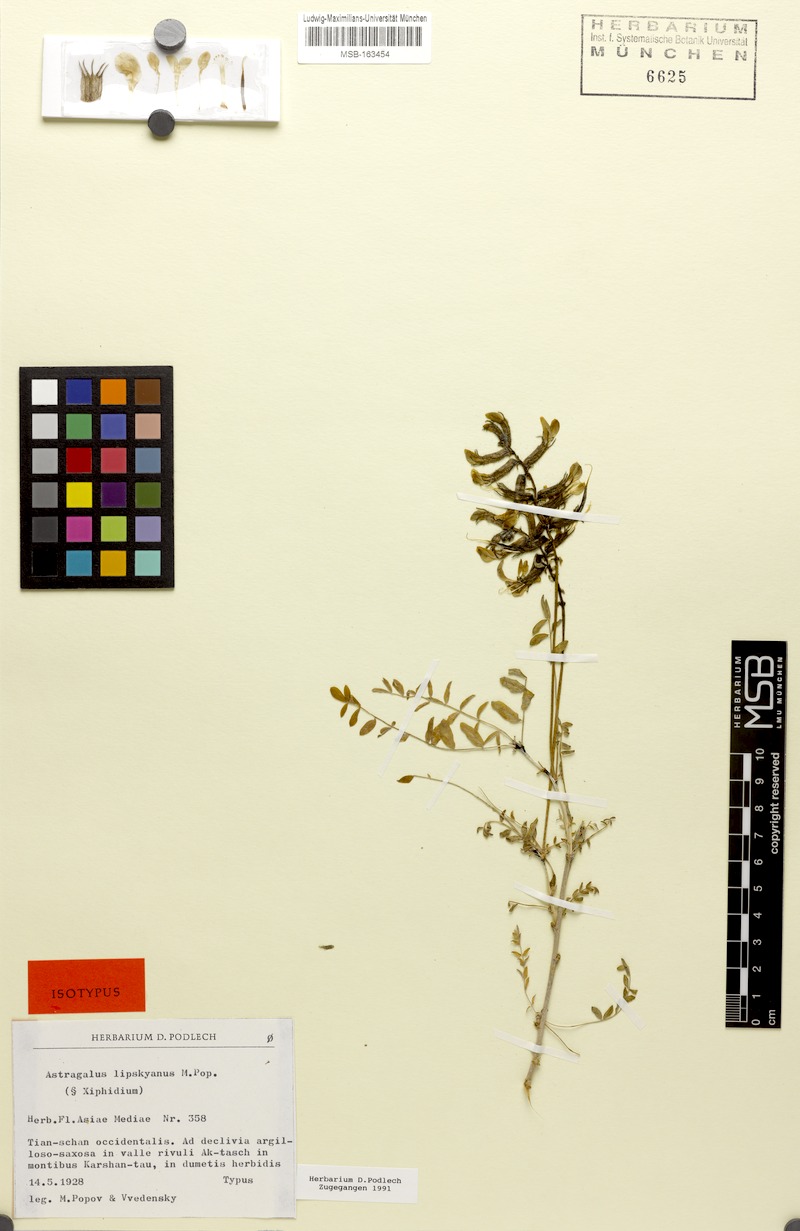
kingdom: Plantae
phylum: Tracheophyta
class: Magnoliopsida
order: Fabales
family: Fabaceae
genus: Astragalus
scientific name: Astragalus neolipskyanus
